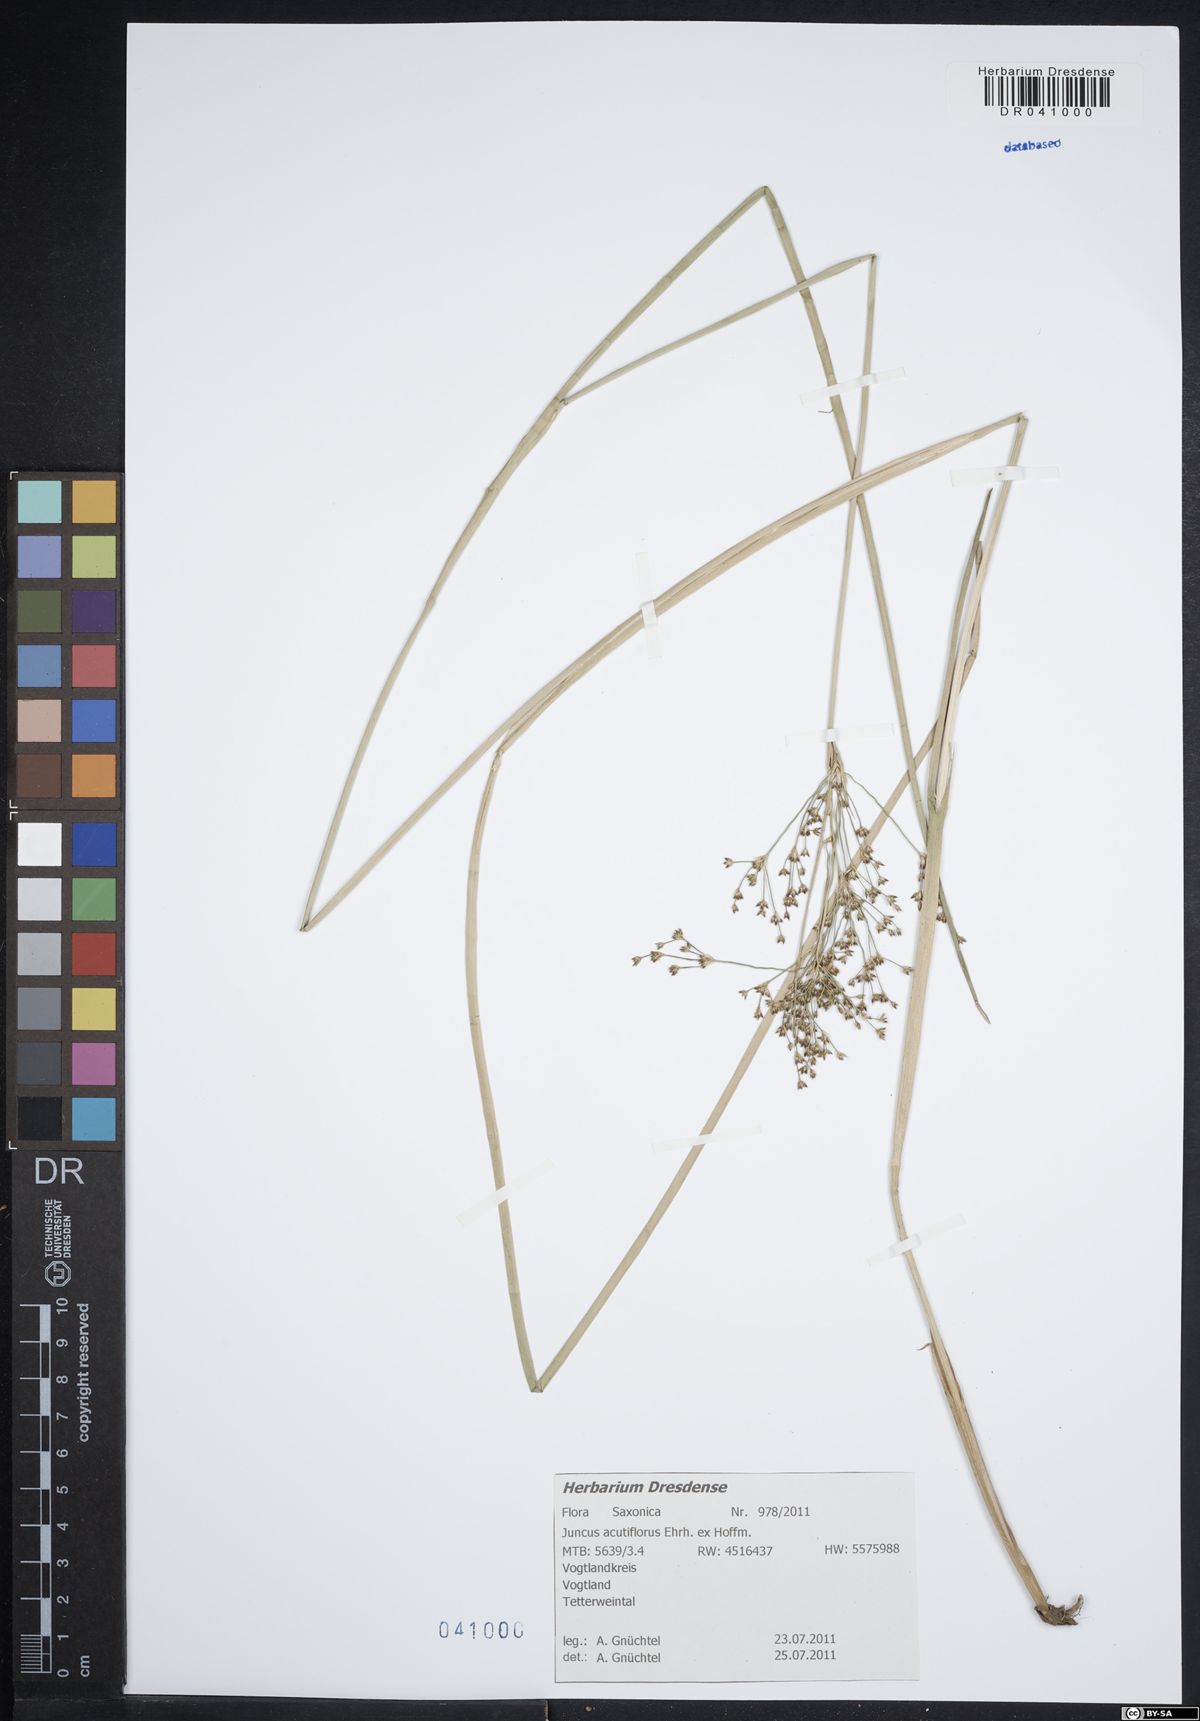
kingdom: Plantae
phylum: Tracheophyta
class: Liliopsida
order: Poales
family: Juncaceae
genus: Juncus
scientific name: Juncus acutiflorus
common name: Sharp-flowered rush
